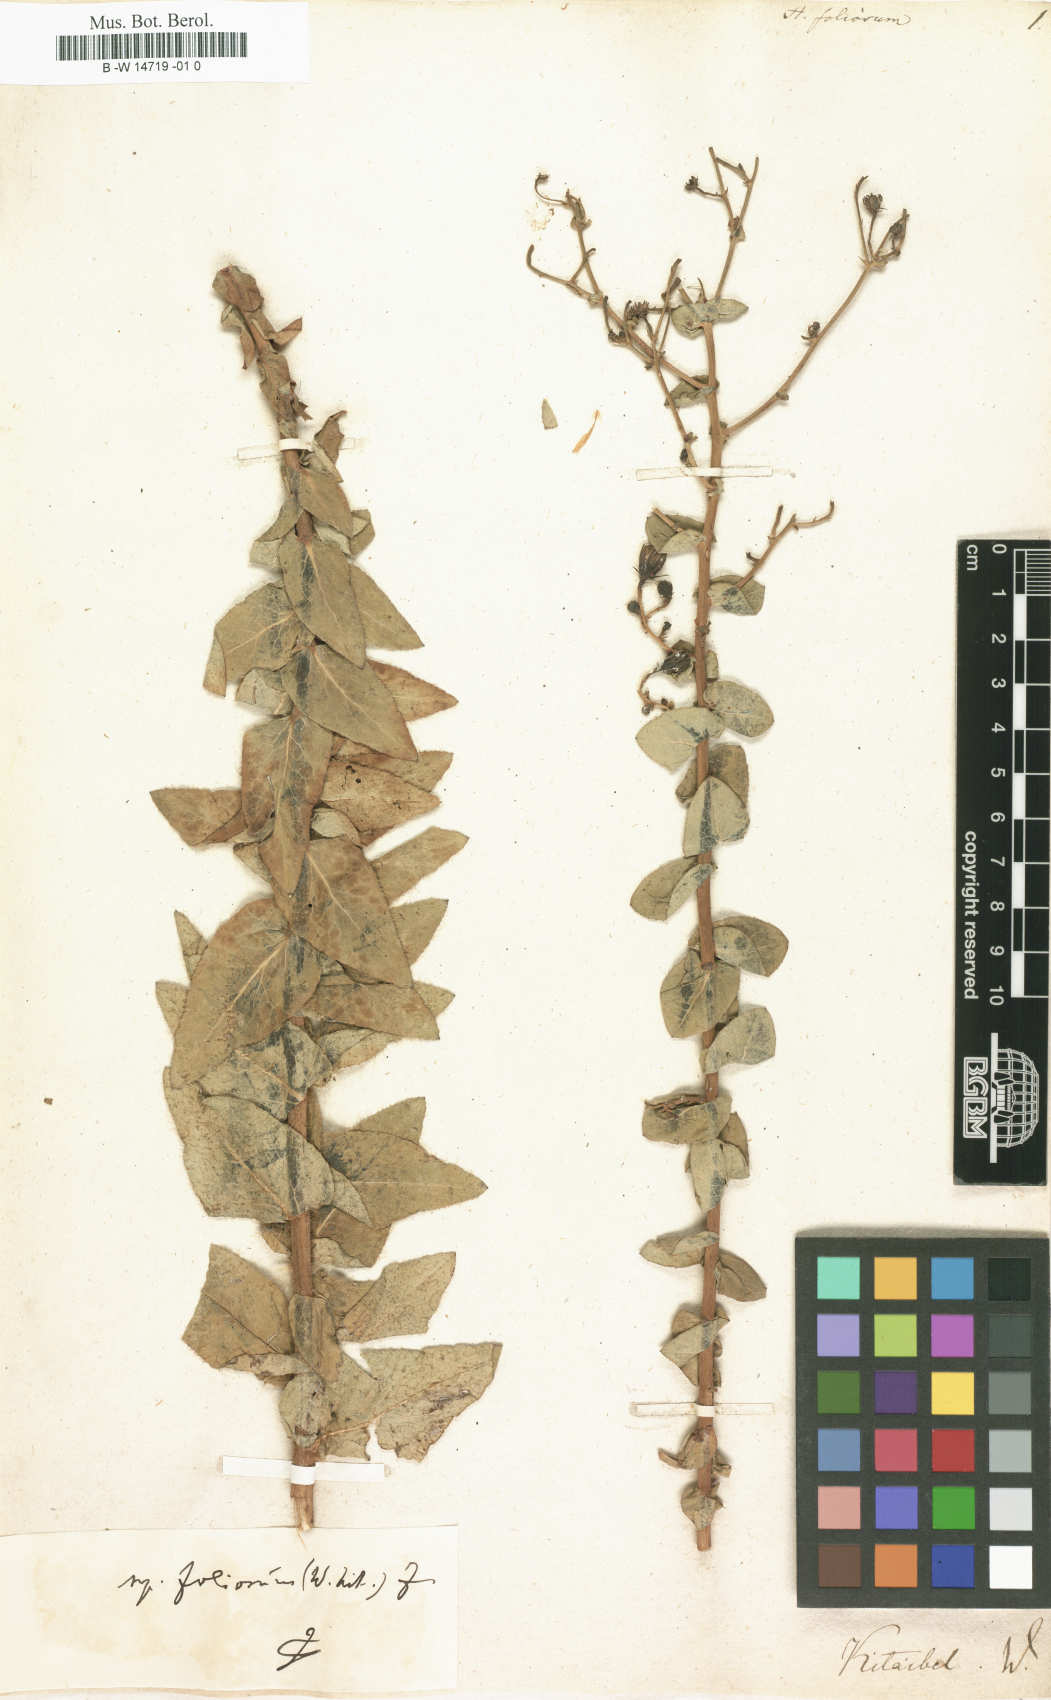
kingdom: Plantae
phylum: Tracheophyta
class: Magnoliopsida
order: Asterales
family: Asteraceae
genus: Hieracium
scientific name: Hieracium
